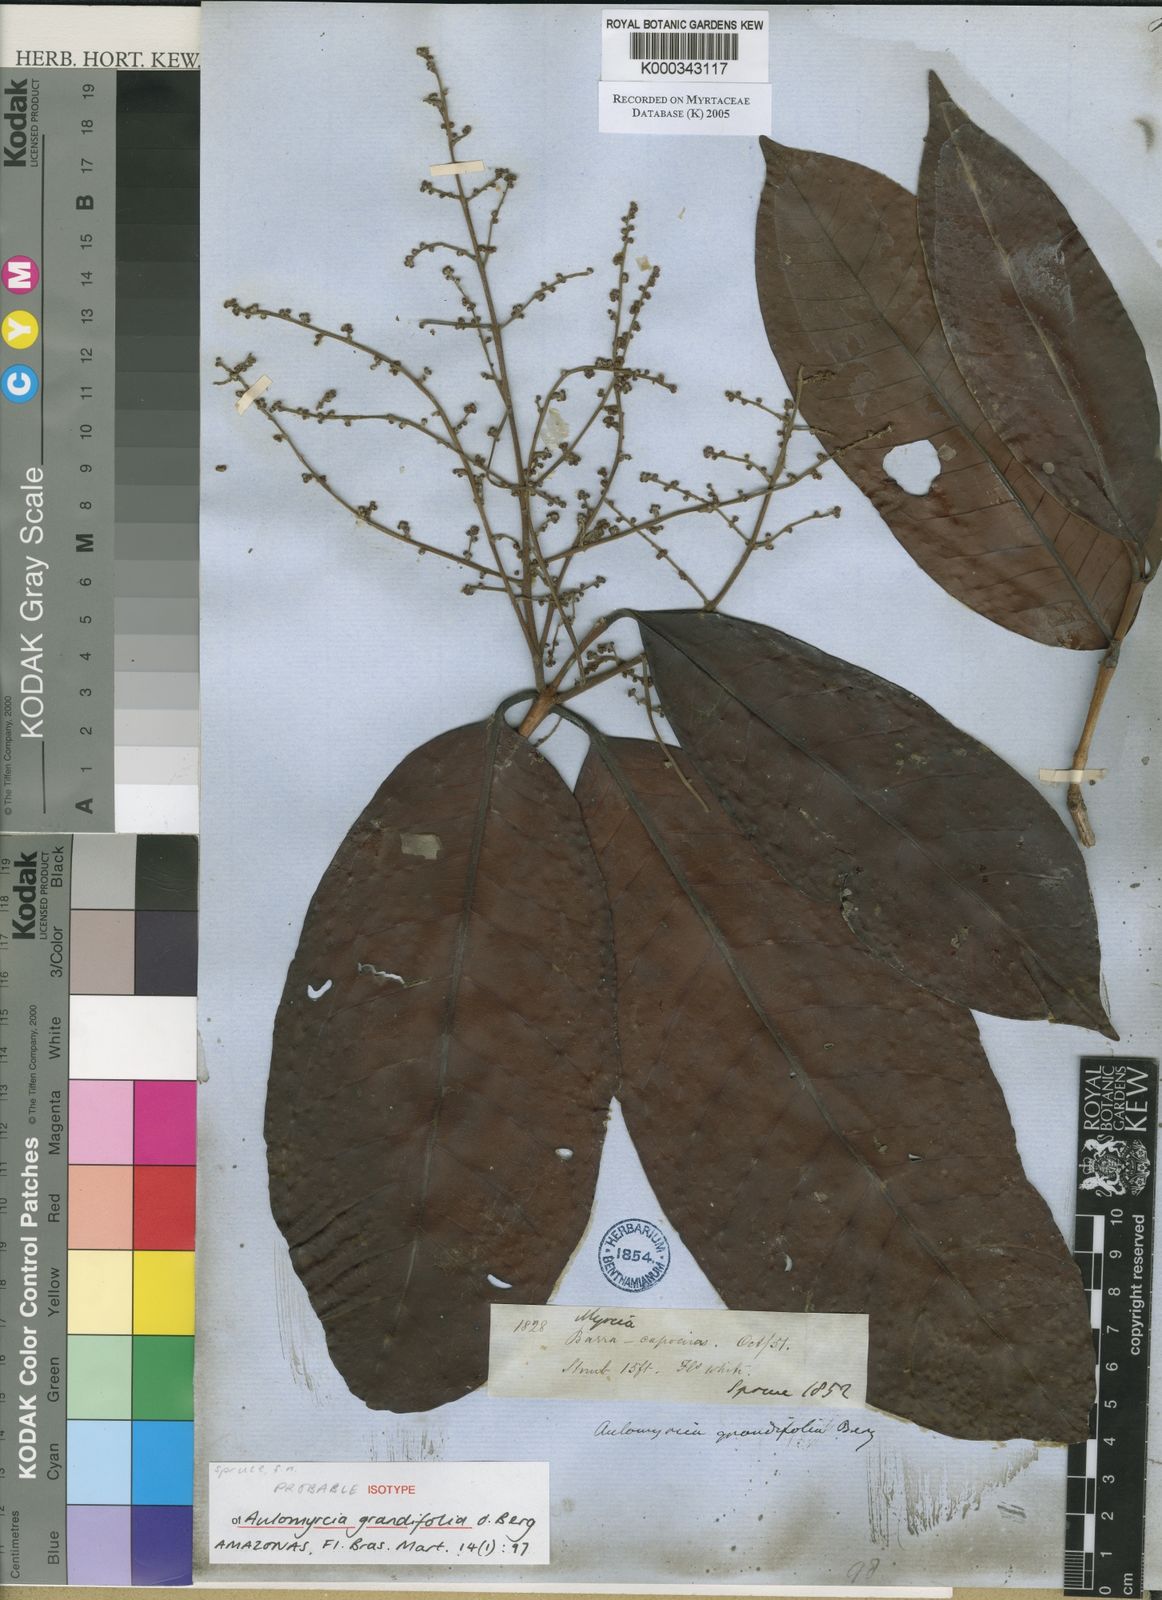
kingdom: Plantae
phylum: Tracheophyta
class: Magnoliopsida
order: Myrtales
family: Myrtaceae
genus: Myrcia
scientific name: Myrcia grandifolia
